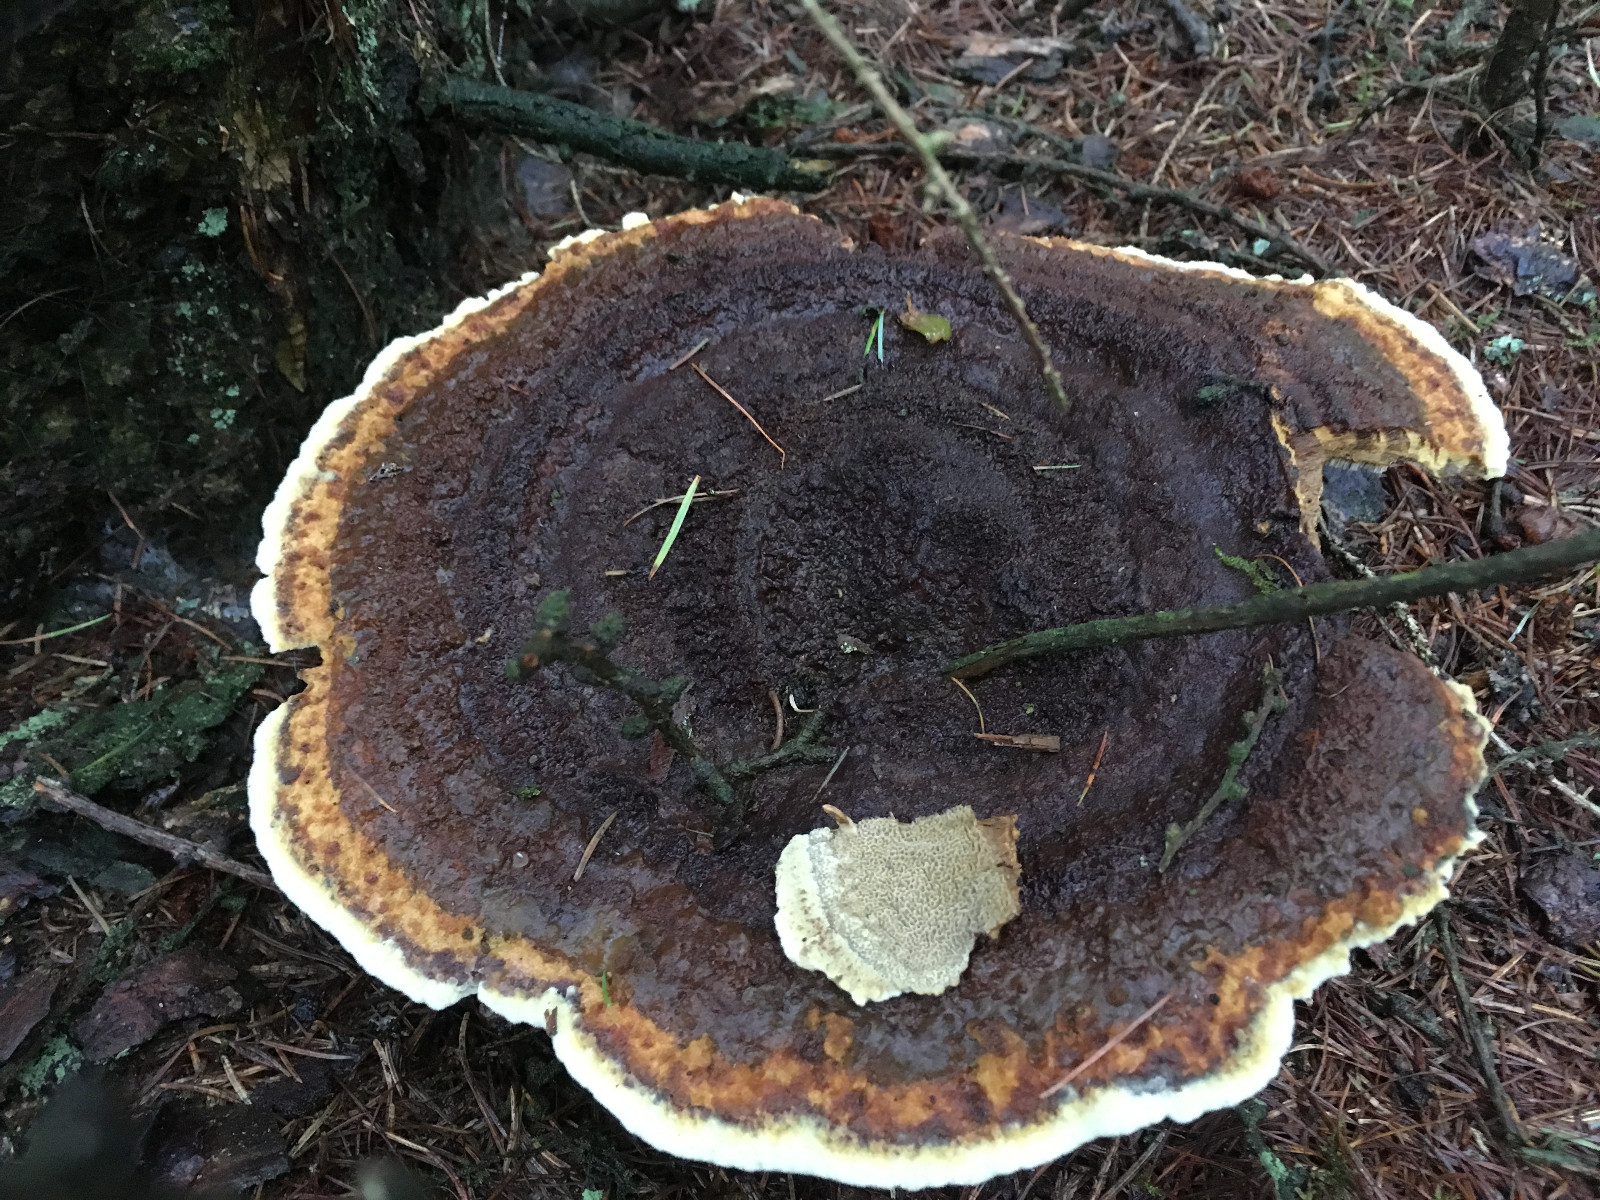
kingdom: Fungi
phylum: Basidiomycota
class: Agaricomycetes
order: Polyporales
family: Laetiporaceae
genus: Phaeolus
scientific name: Phaeolus schweinitzii
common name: brunporesvamp
